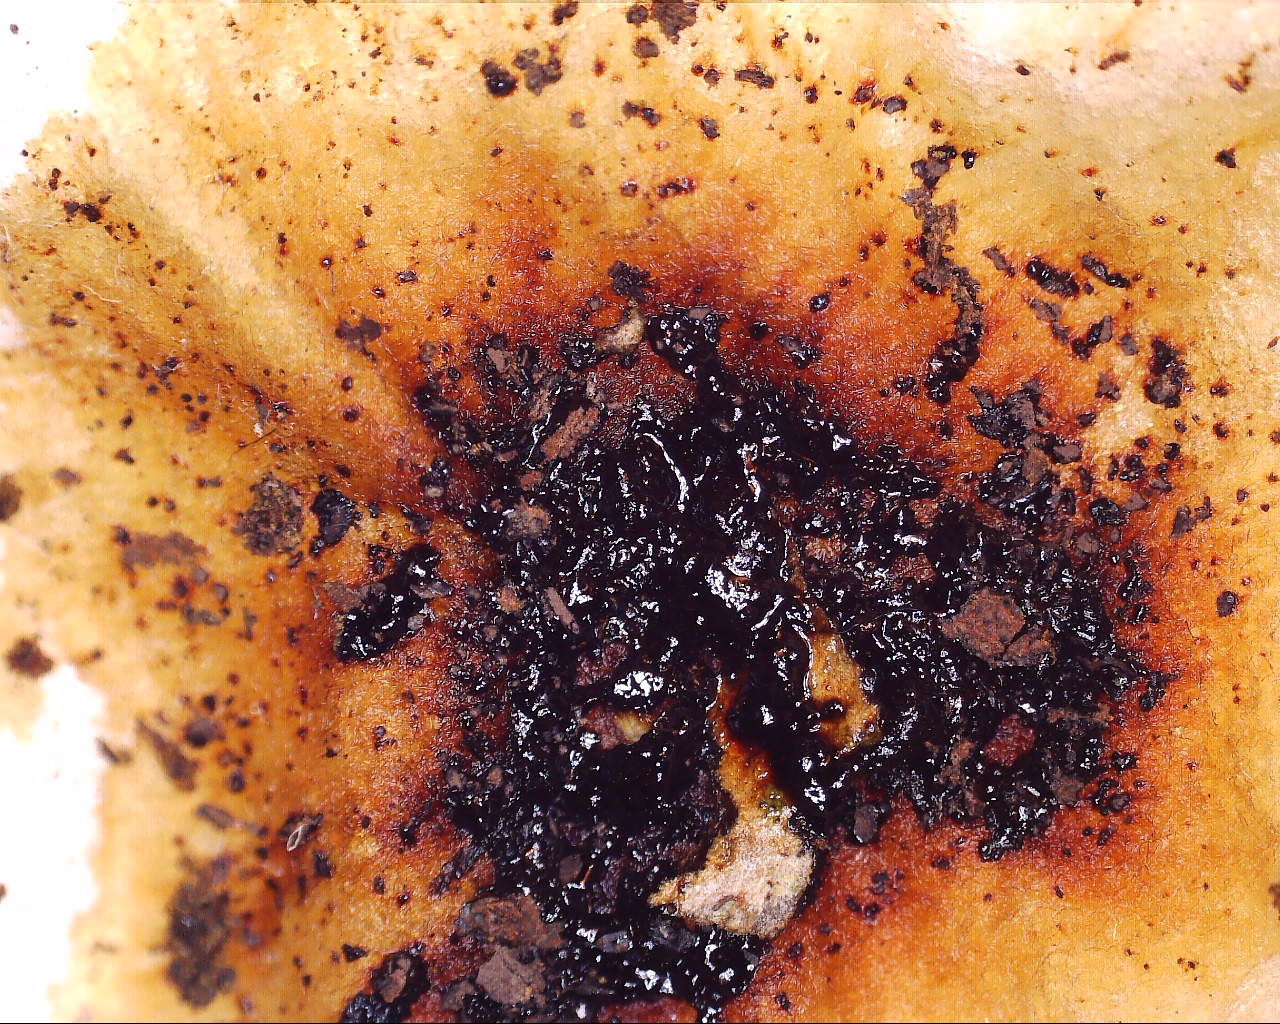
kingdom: Fungi
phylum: Ascomycota
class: Sordariomycetes
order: Xylariales
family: Hypoxylaceae
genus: Hypoxylon
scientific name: Hypoxylon petriniae
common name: nedsænket kulbær
